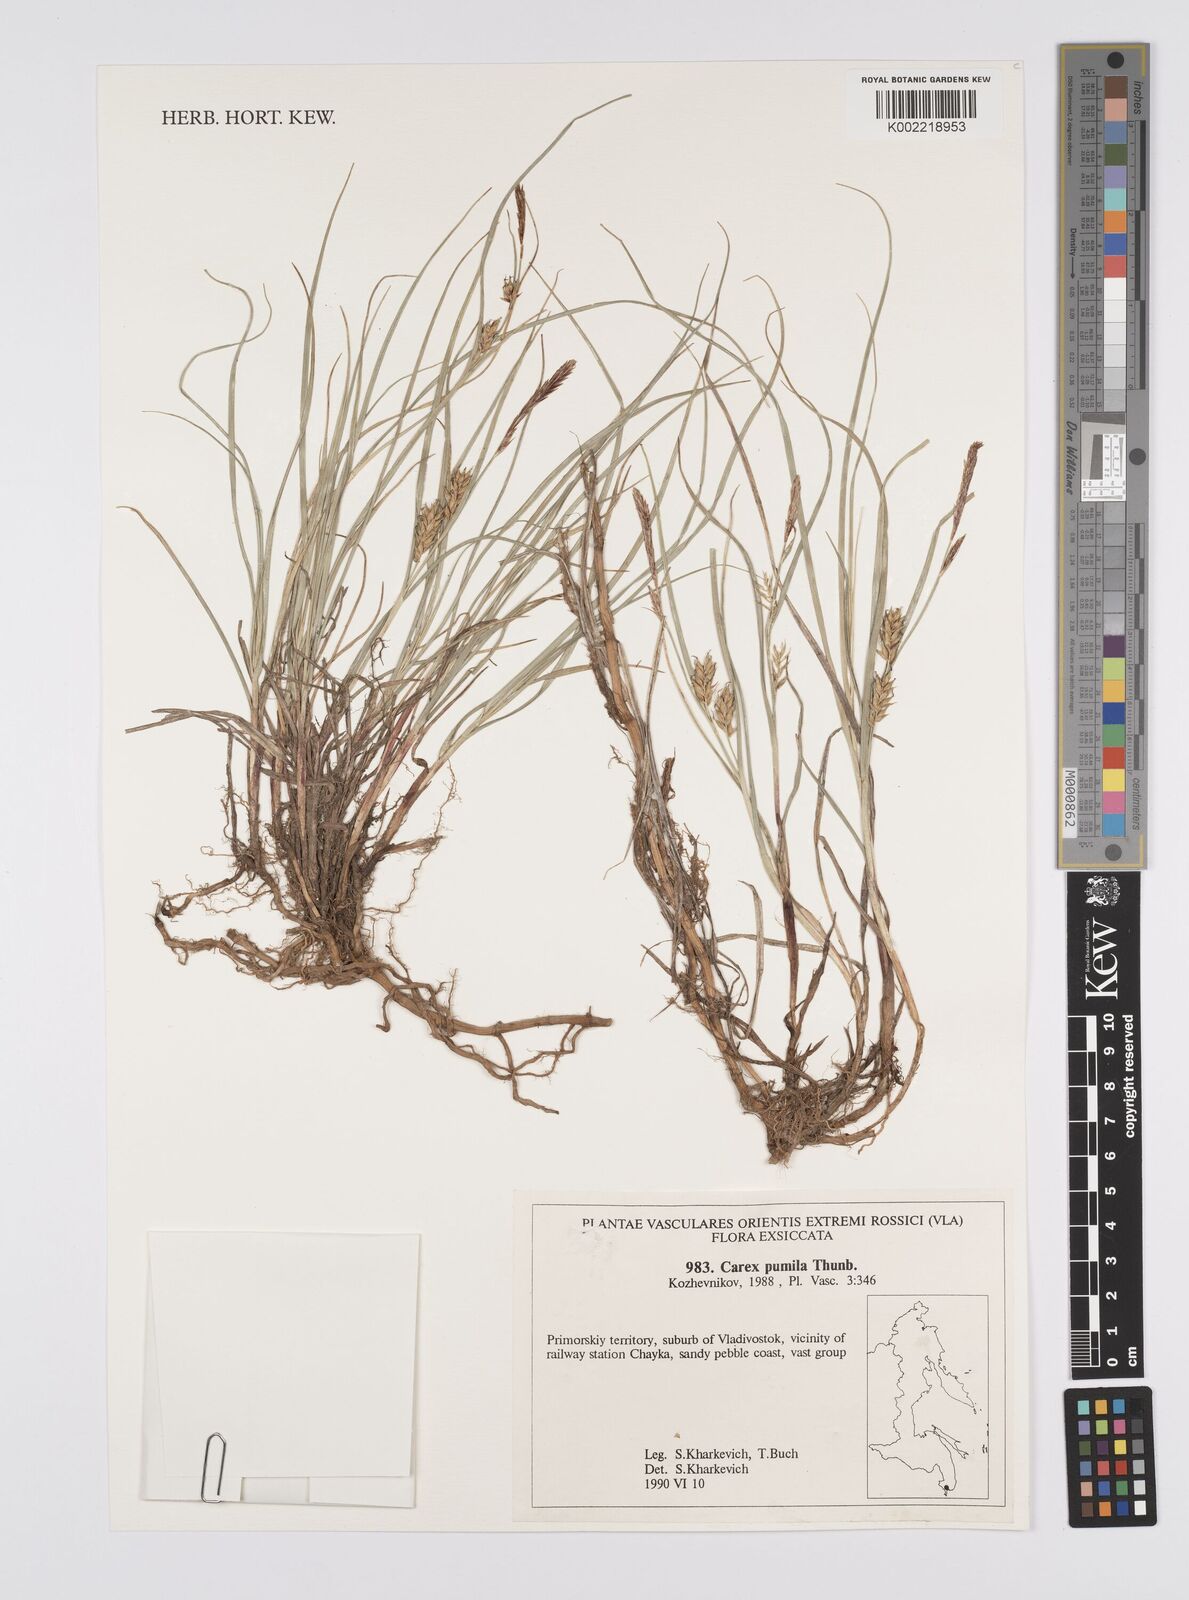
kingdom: Plantae
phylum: Tracheophyta
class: Liliopsida
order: Poales
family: Cyperaceae
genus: Carex
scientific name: Carex pumila
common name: Dwarf sedge
